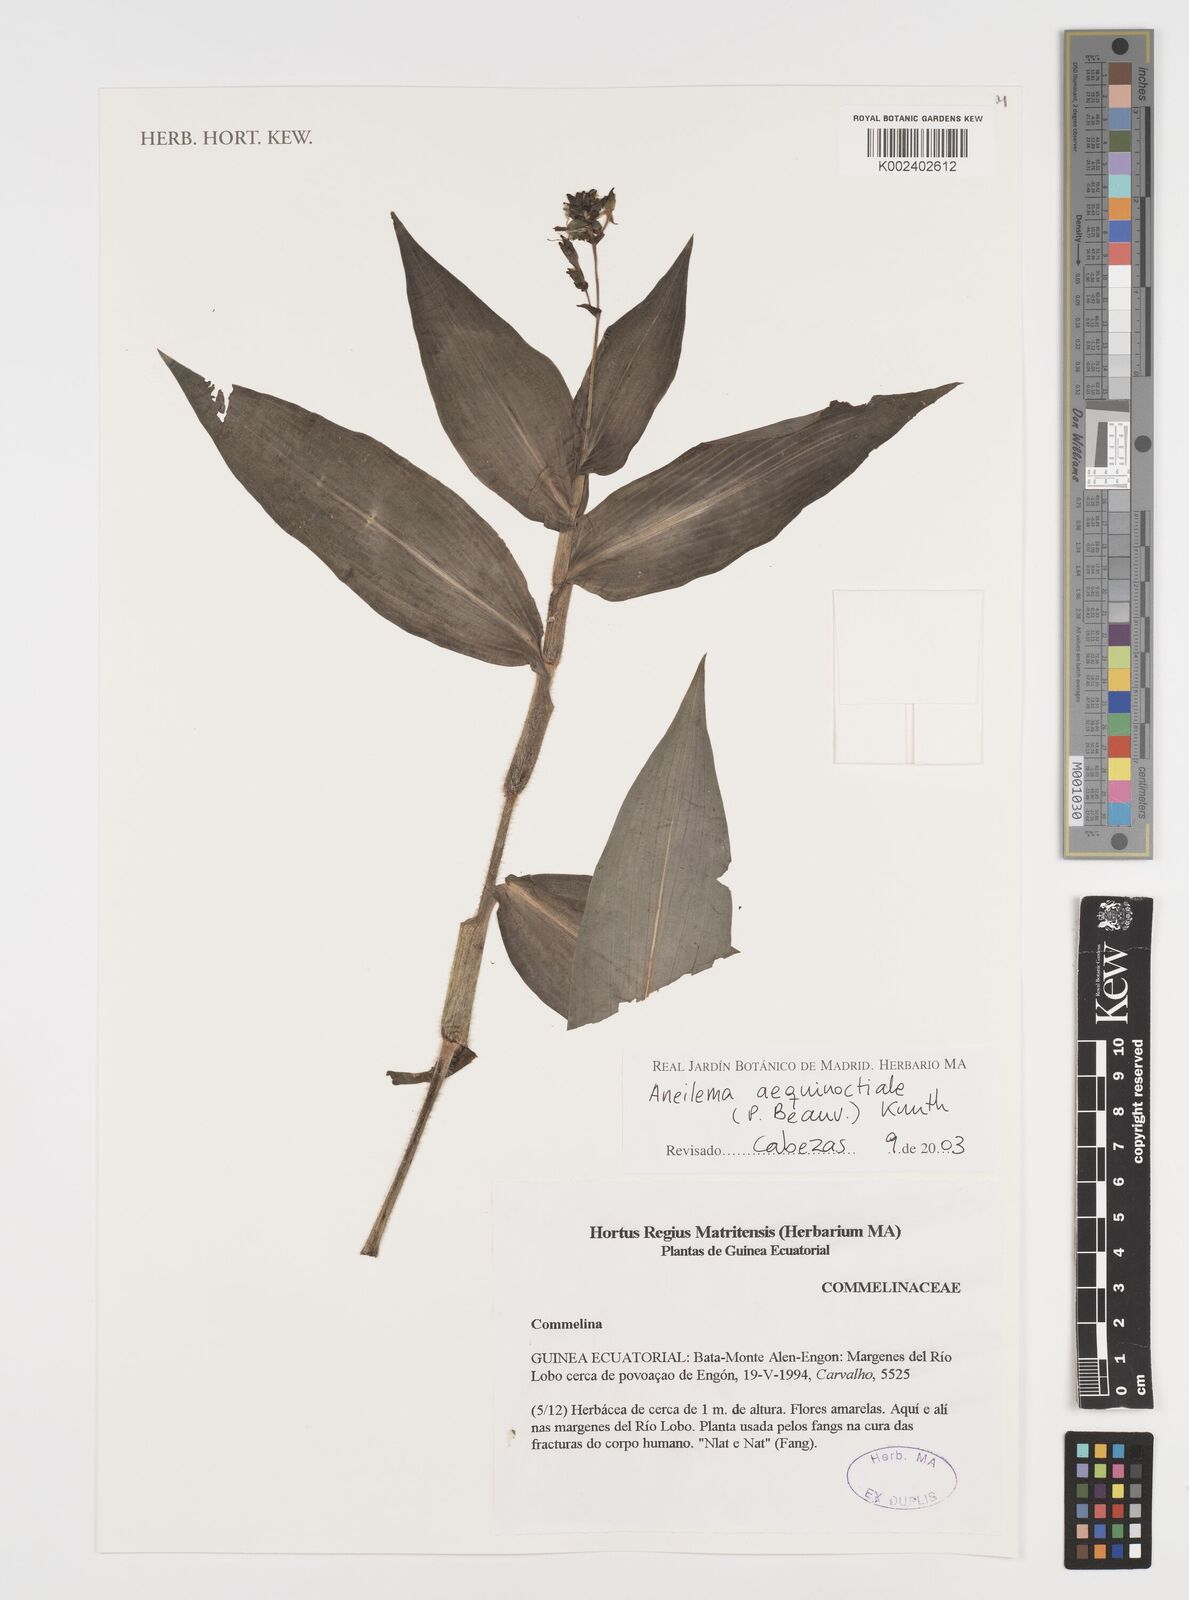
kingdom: Plantae
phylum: Tracheophyta
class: Liliopsida
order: Commelinales
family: Commelinaceae
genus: Aneilema
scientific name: Aneilema aequinoctiale
